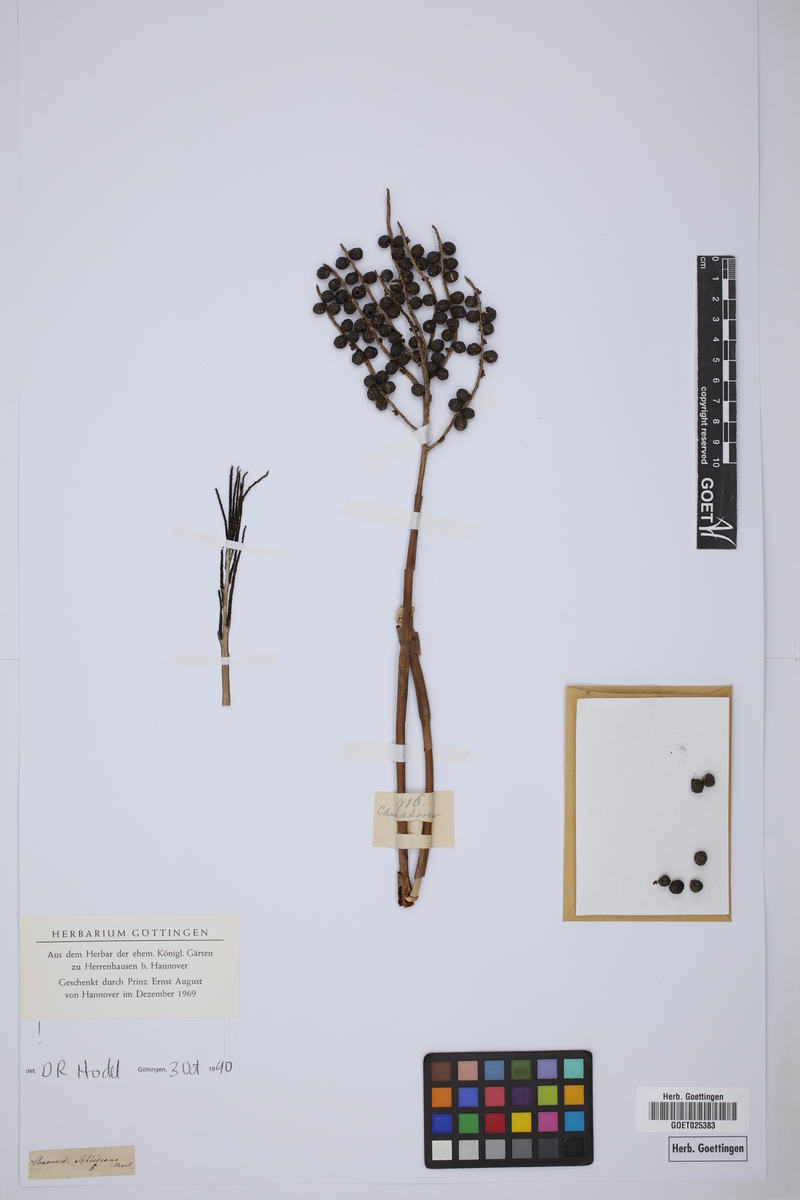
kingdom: Plantae
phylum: Tracheophyta
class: Liliopsida
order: Arecales
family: Arecaceae
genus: Chamaedorea
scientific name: Chamaedorea
